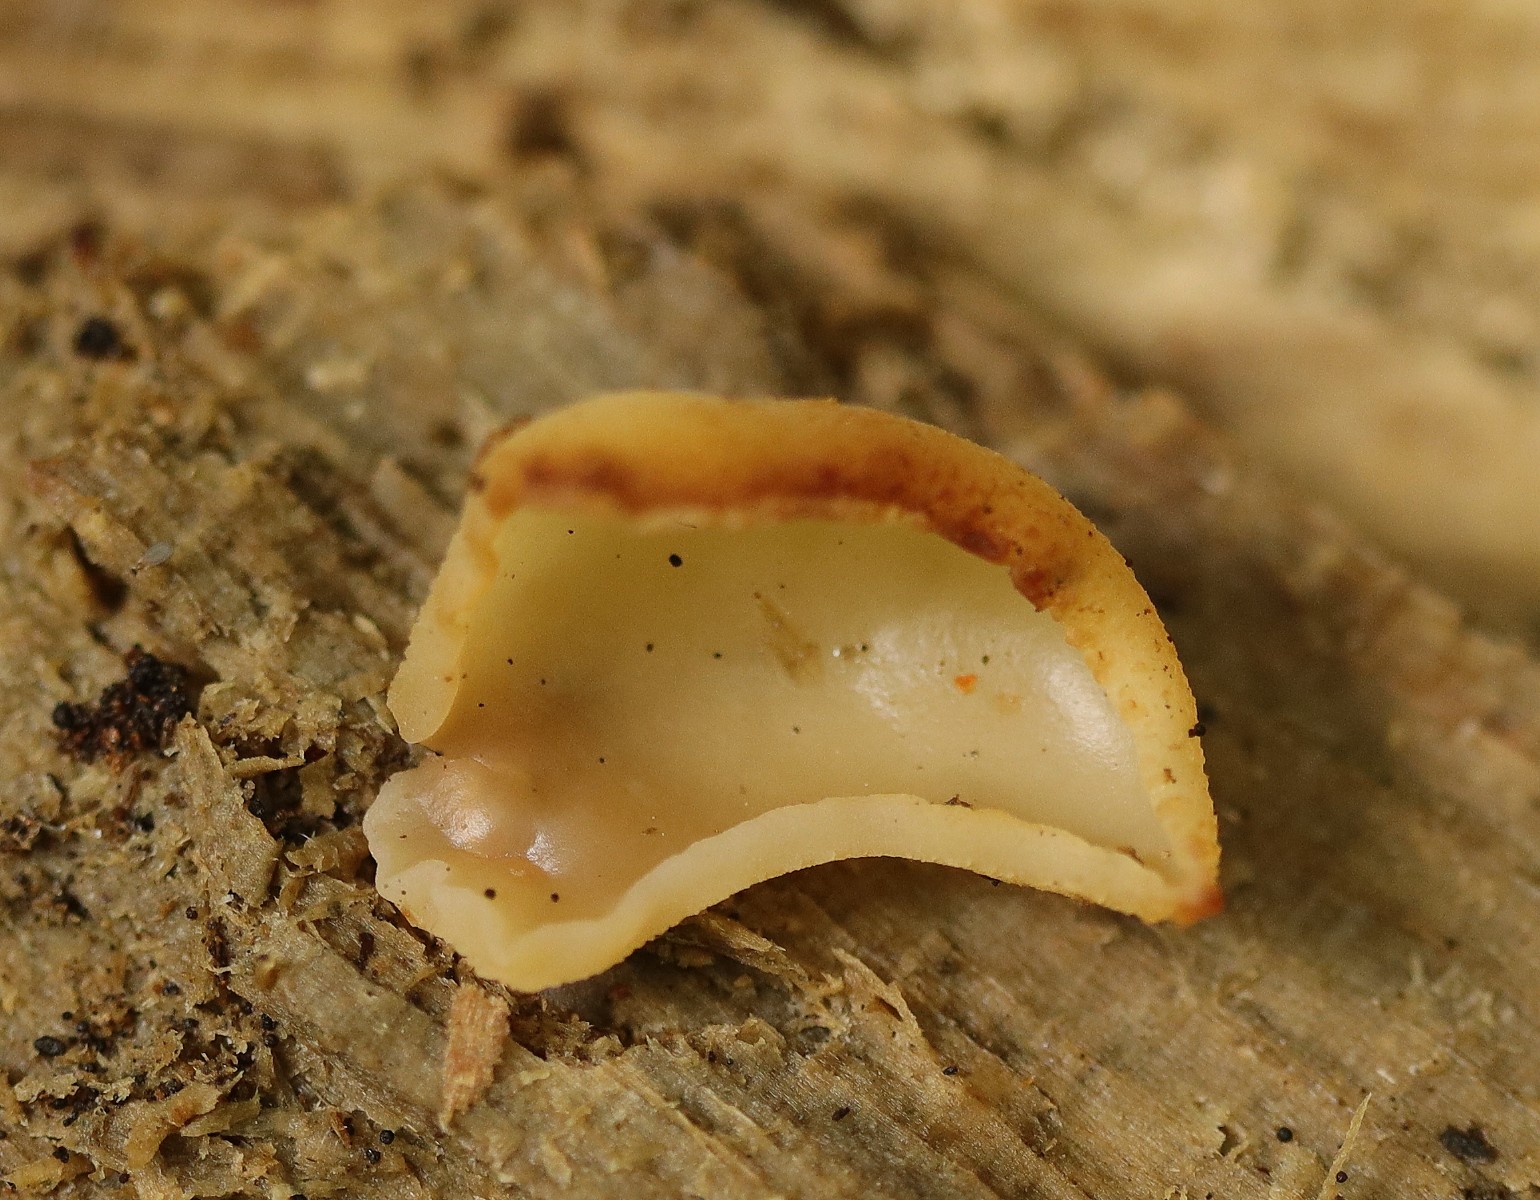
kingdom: Fungi
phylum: Ascomycota
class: Pezizomycetes
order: Pezizales
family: Pezizaceae
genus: Peziza
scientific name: Peziza varia
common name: Ved-bægersvamp
